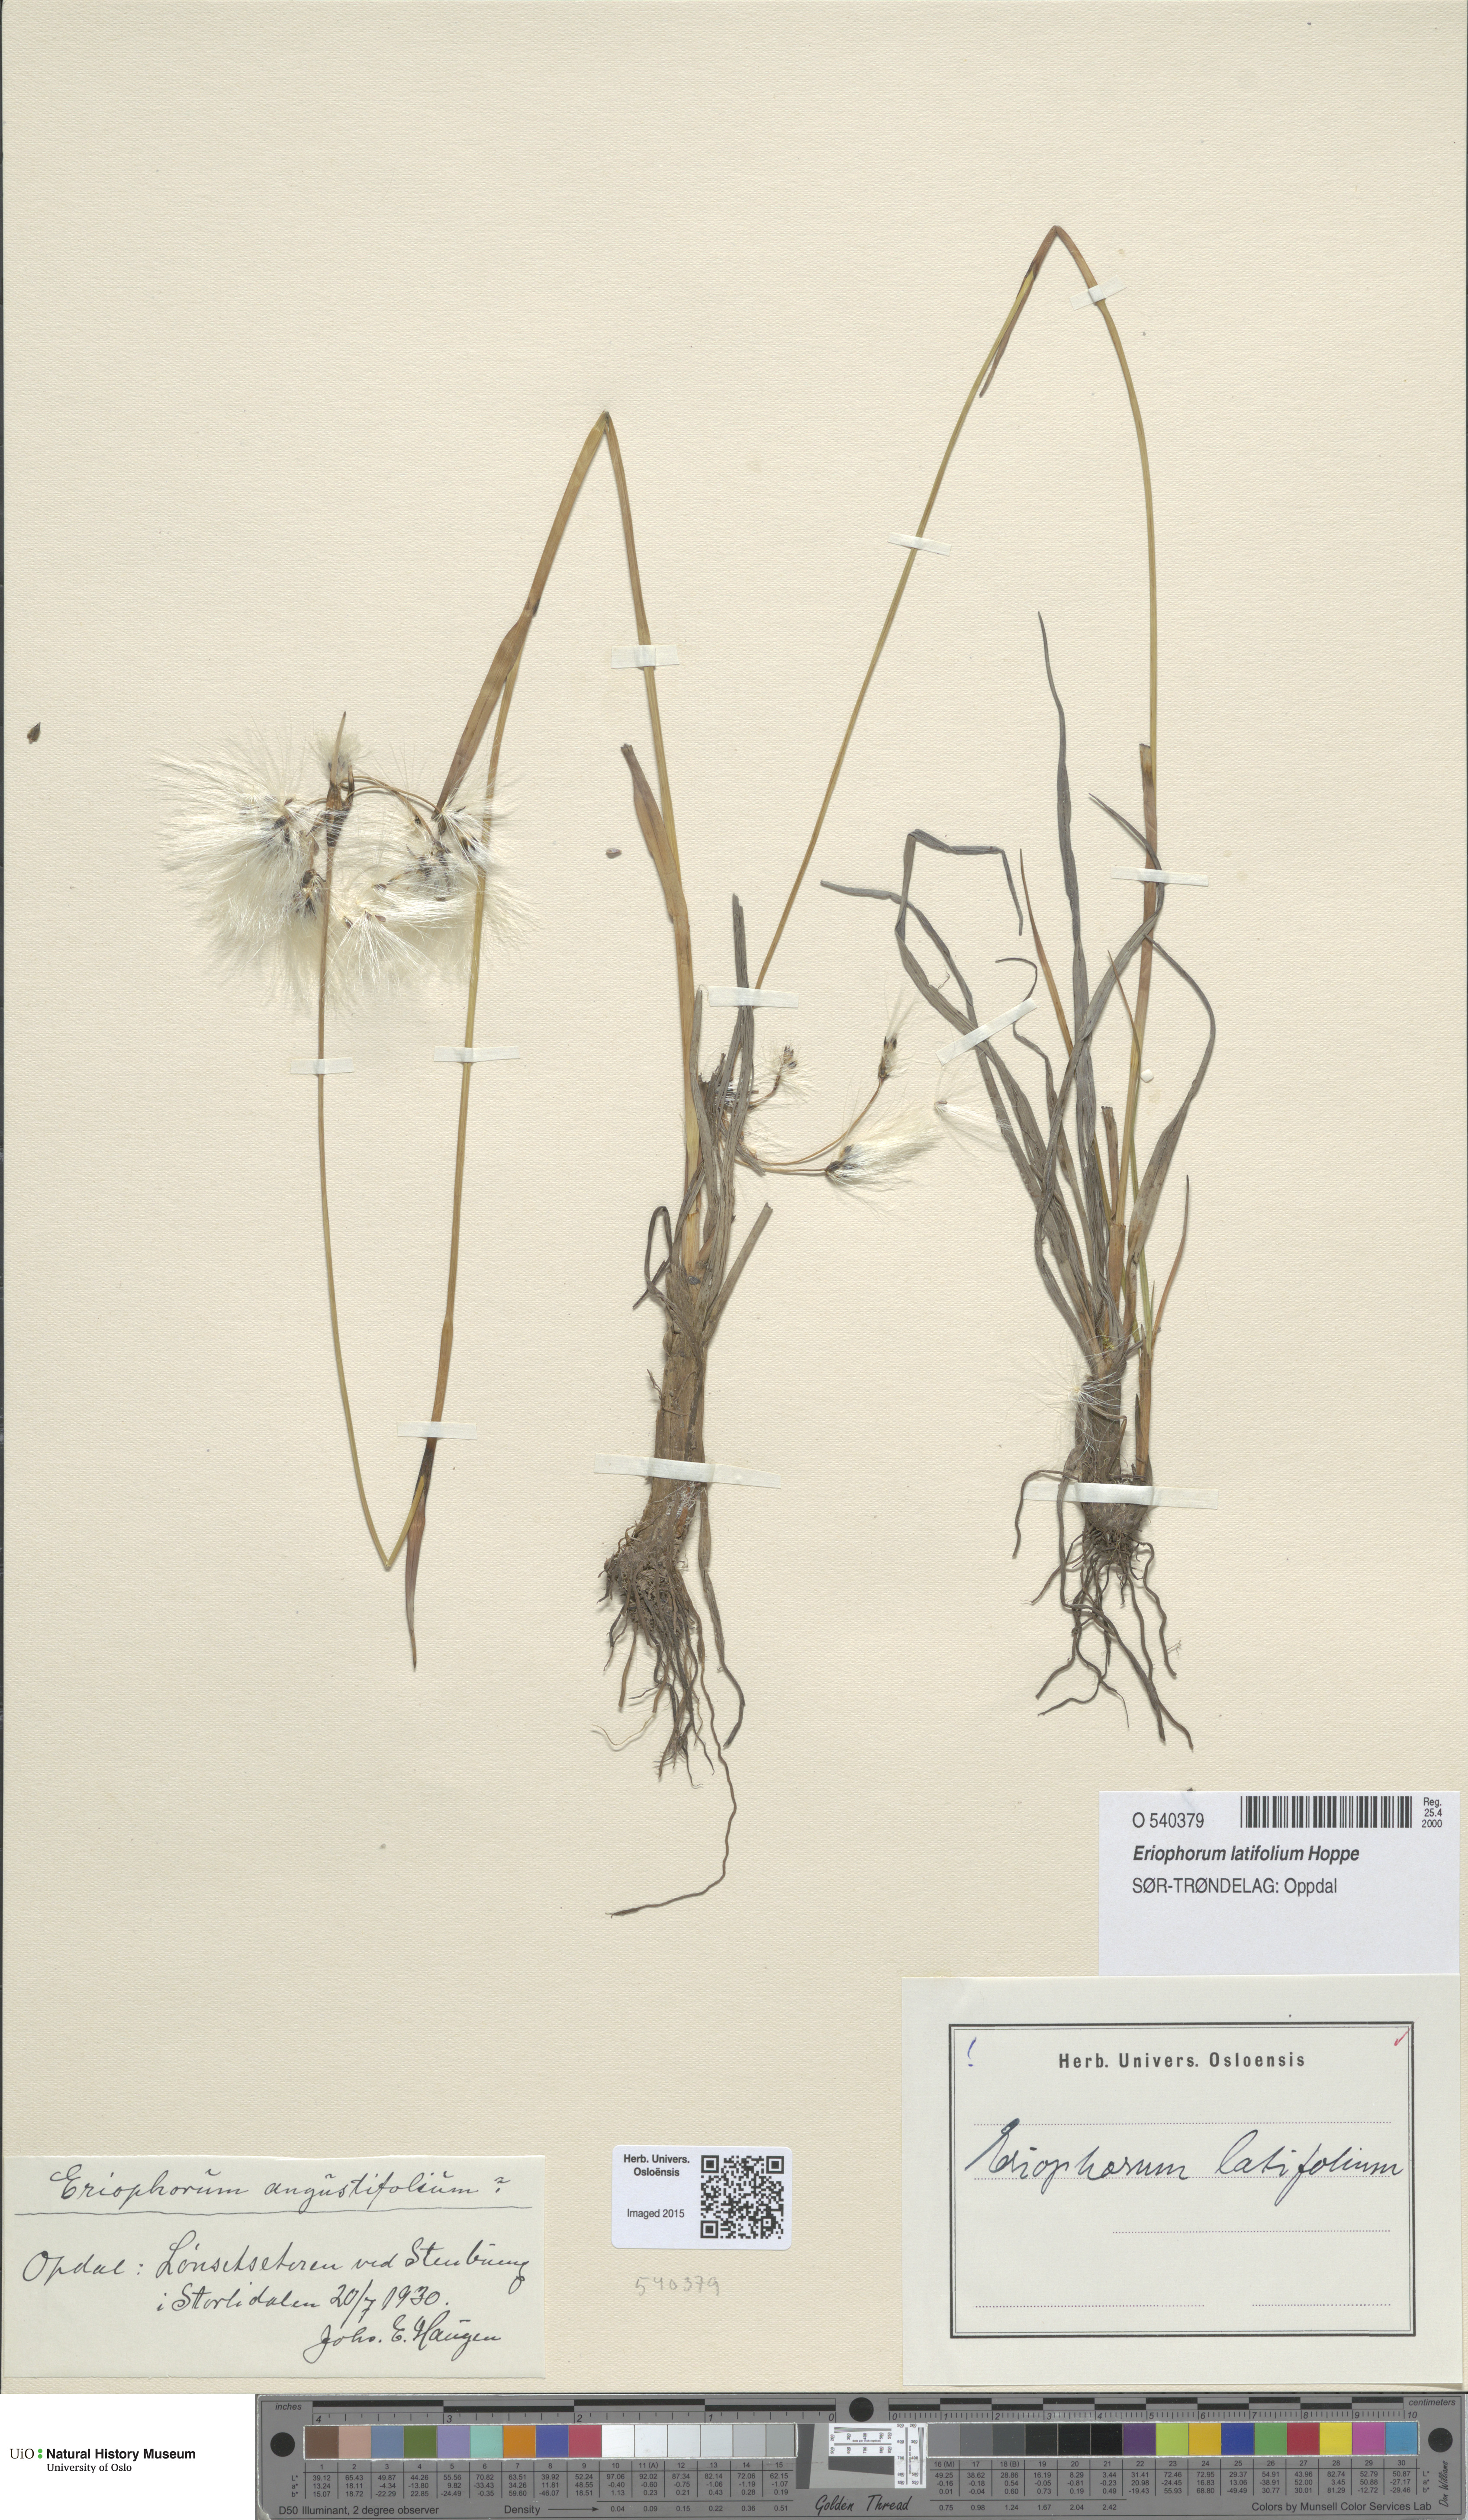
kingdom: Plantae
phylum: Tracheophyta
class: Liliopsida
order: Poales
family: Cyperaceae
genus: Eriophorum
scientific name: Eriophorum latifolium
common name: Broad-leaved cottongrass
